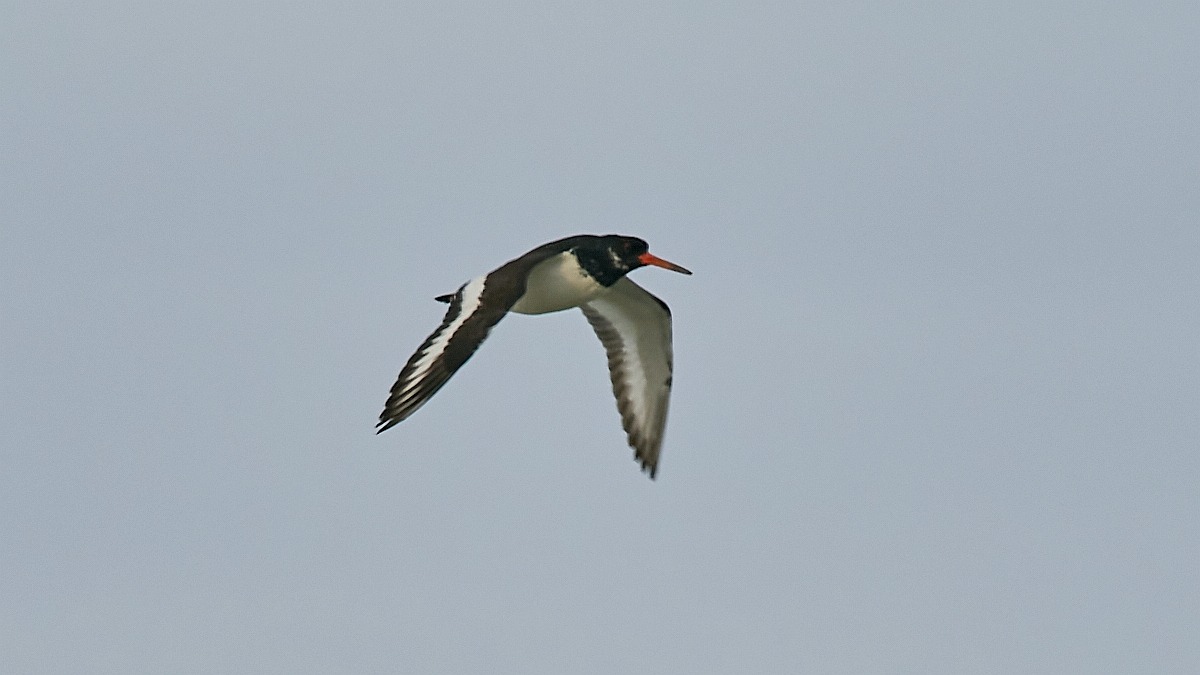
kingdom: Animalia
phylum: Chordata
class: Aves
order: Charadriiformes
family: Haematopodidae
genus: Haematopus
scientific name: Haematopus ostralegus
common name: Strandskade
